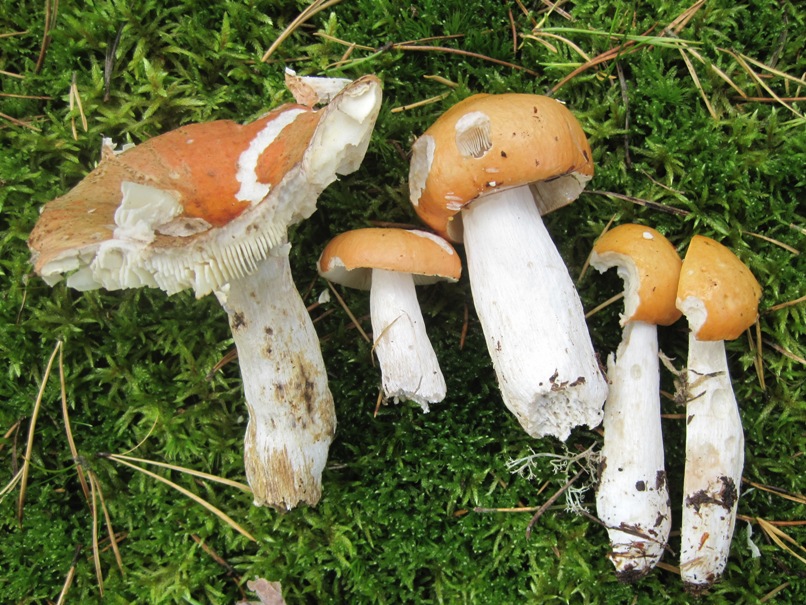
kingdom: Fungi
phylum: Basidiomycota
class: Agaricomycetes
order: Russulales
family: Russulaceae
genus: Russula
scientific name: Russula decolorans
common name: afblegende skørhat
